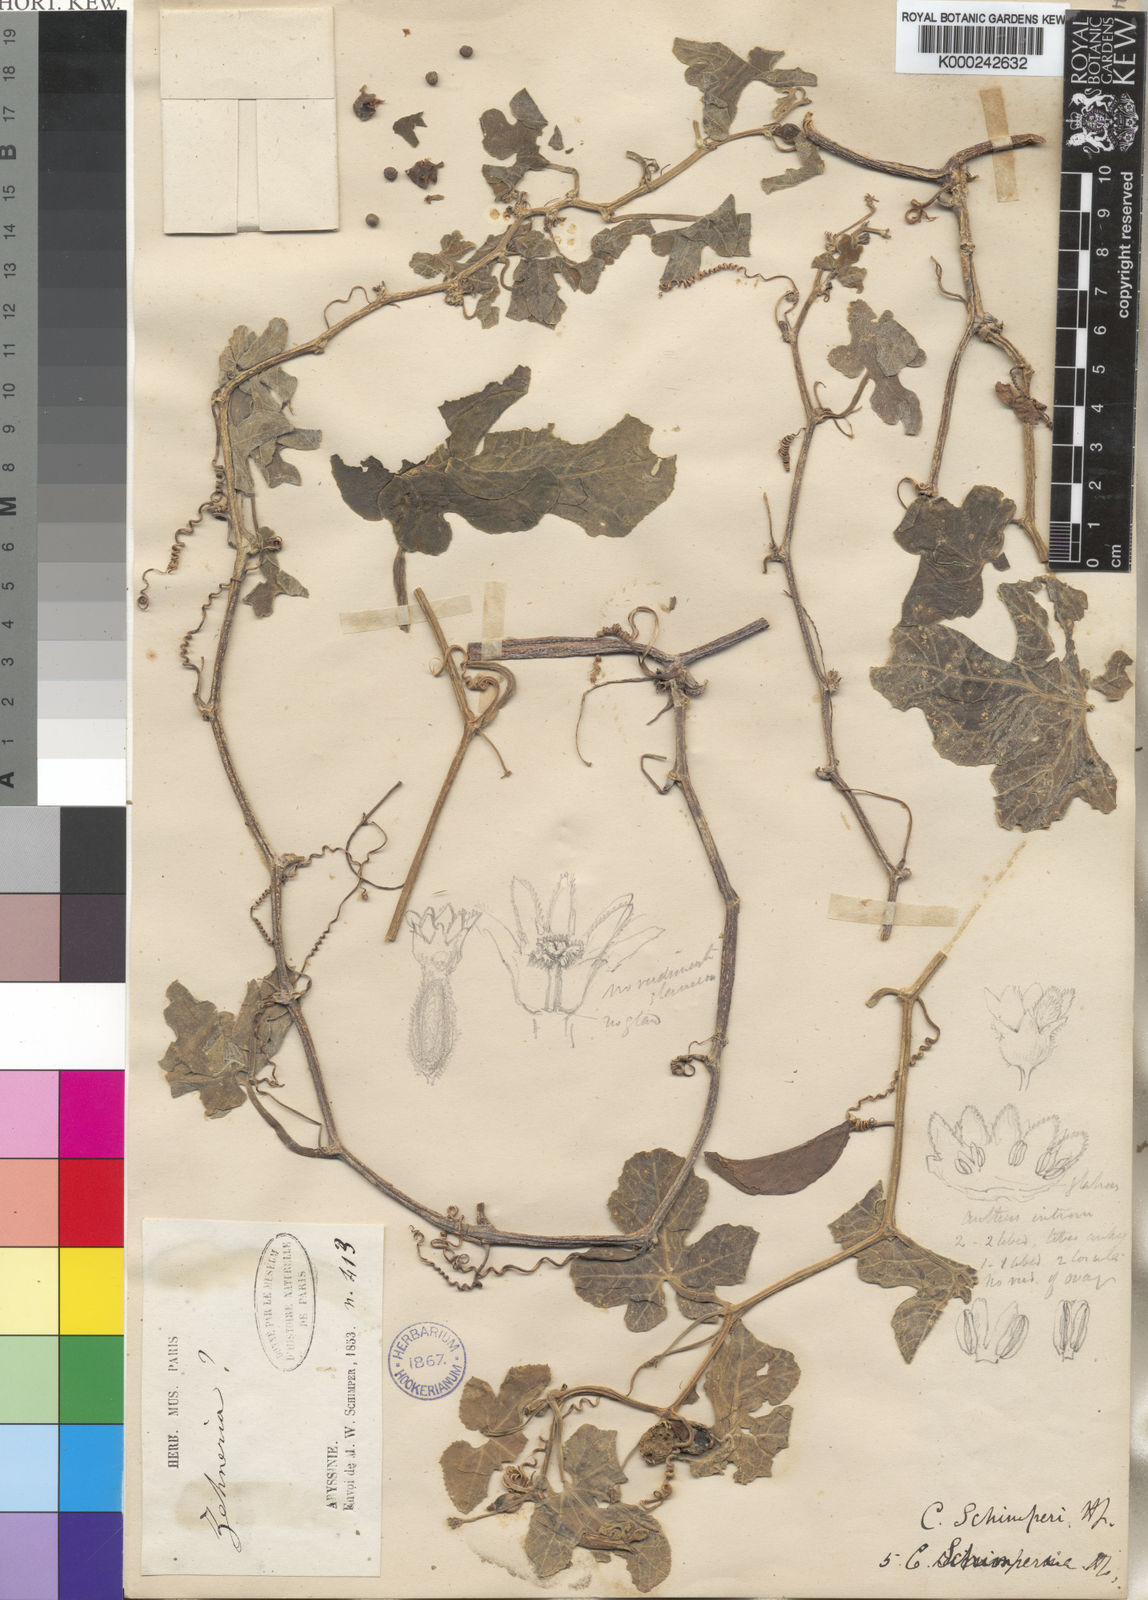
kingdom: Plantae
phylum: Tracheophyta
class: Magnoliopsida
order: Cucurbitales
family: Cucurbitaceae
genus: Corallocarpus
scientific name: Corallocarpus schimperi
